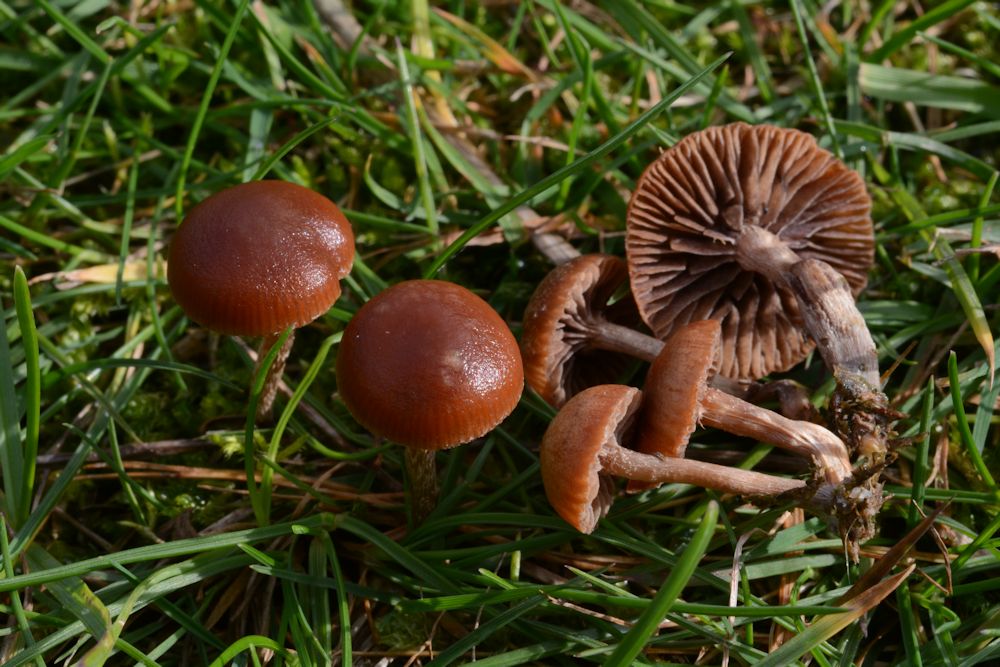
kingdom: Fungi
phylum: Basidiomycota
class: Agaricomycetes
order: Agaricales
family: Strophariaceae
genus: Deconica
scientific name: Deconica montana
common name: rødbrun stråhat
